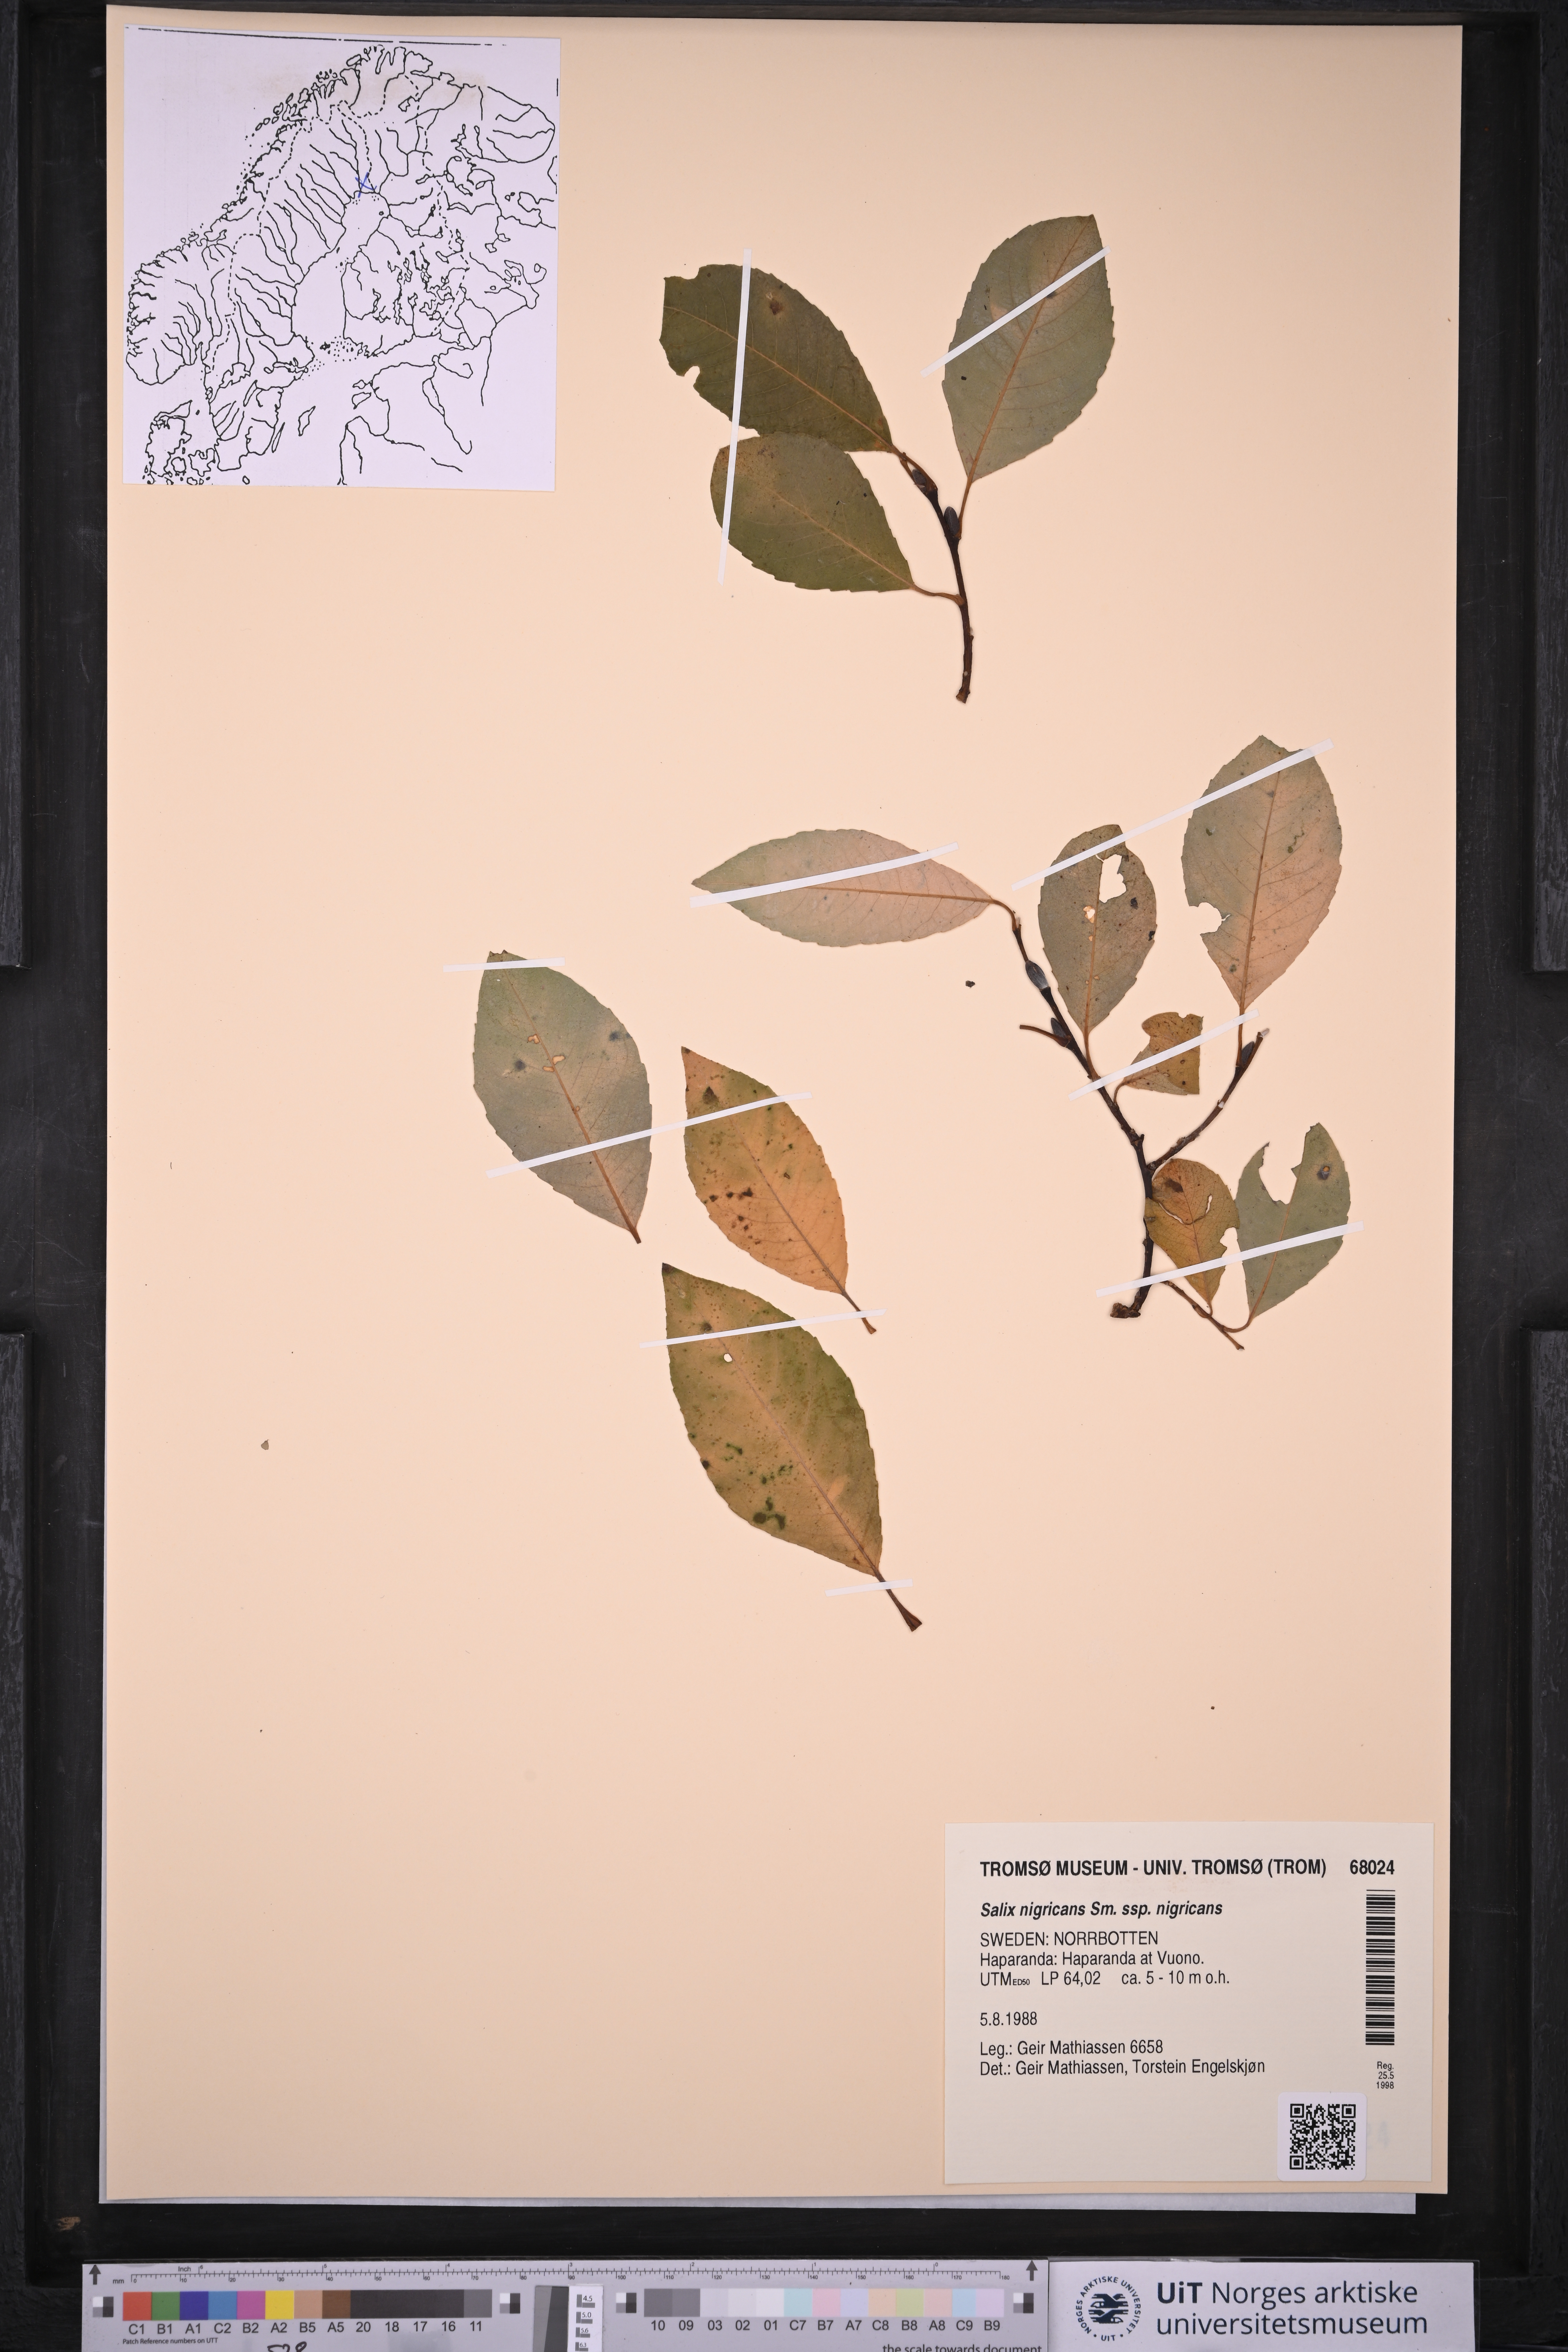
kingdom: Plantae
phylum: Tracheophyta
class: Magnoliopsida
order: Malpighiales
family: Salicaceae
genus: Salix
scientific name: Salix myrsinifolia
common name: Dark-leaved willow
